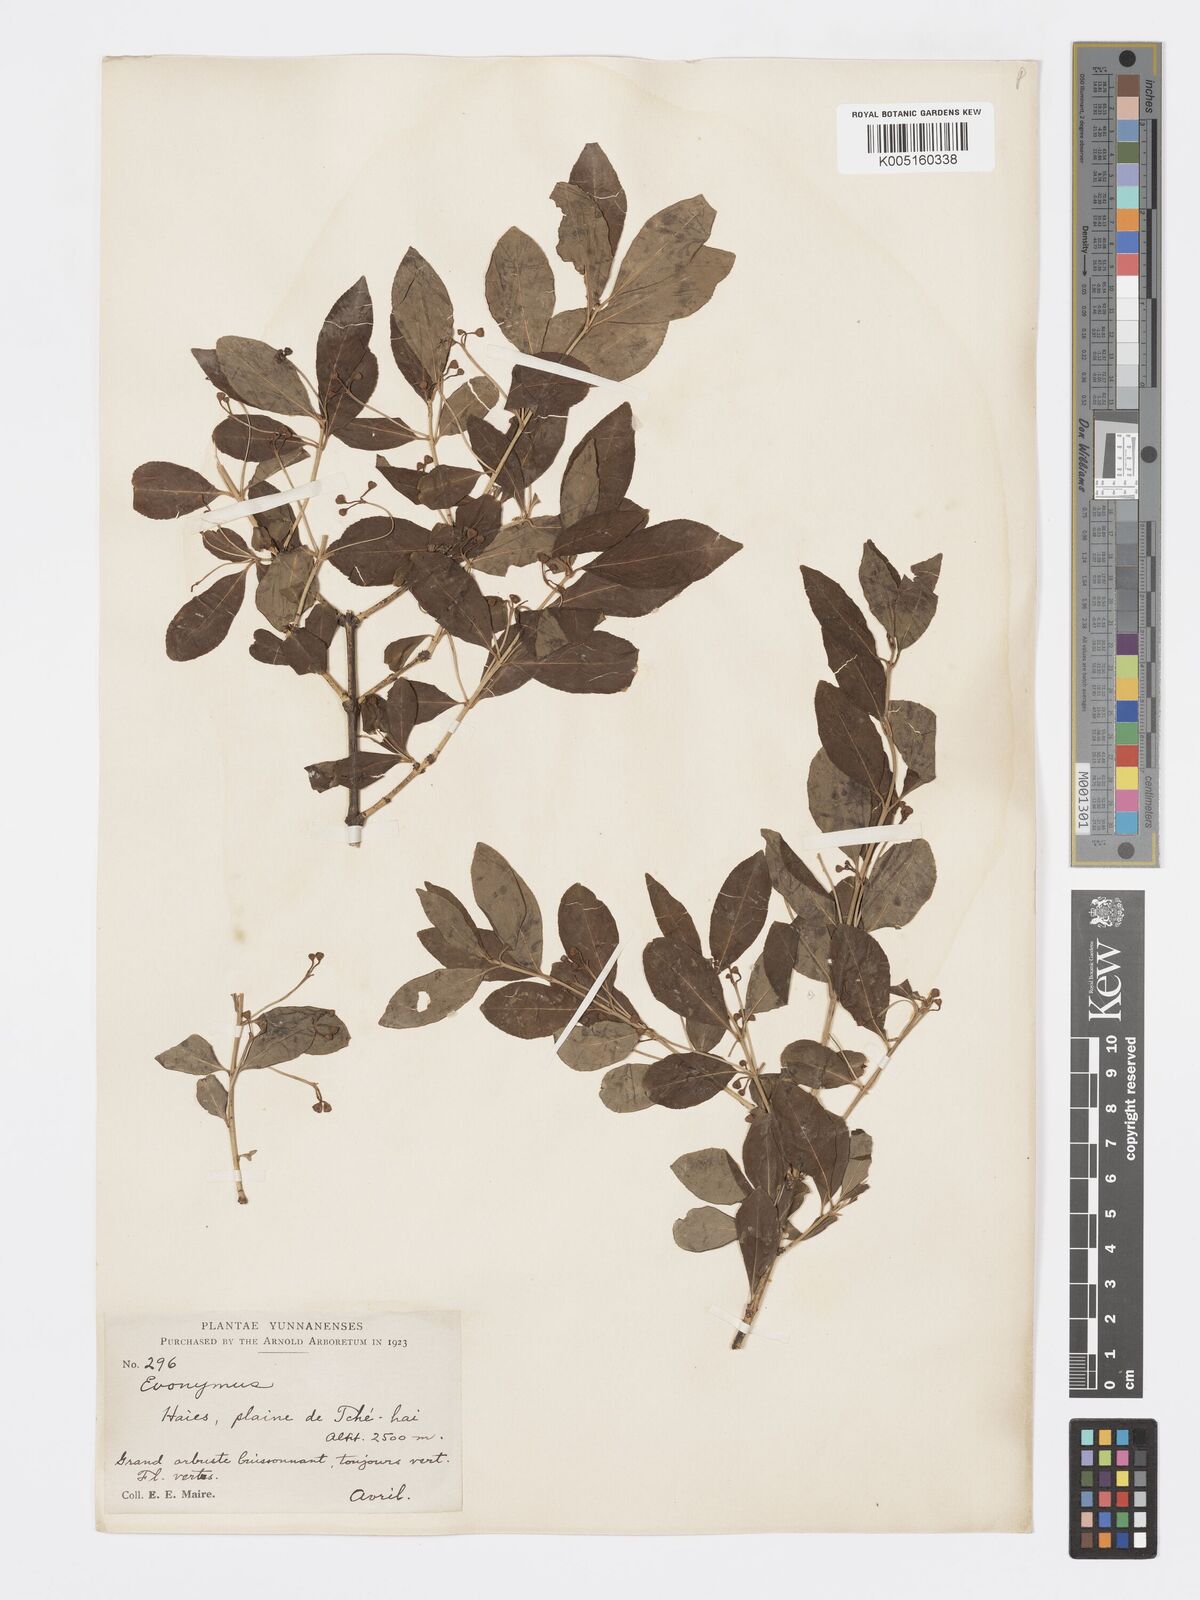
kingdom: Plantae
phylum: Tracheophyta
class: Magnoliopsida
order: Celastrales
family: Celastraceae
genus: Euonymus
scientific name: Euonymus
